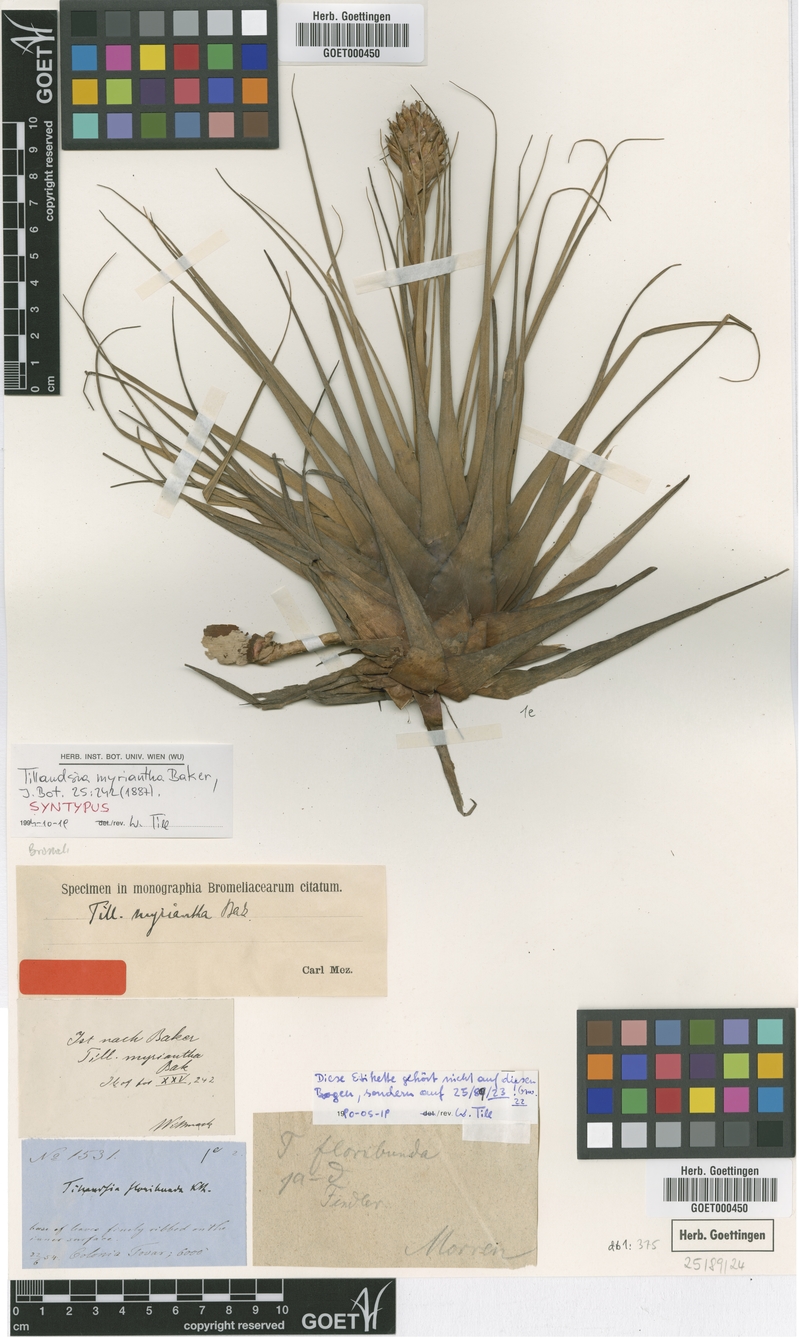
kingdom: Plantae
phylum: Tracheophyta
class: Liliopsida
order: Poales
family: Bromeliaceae
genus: Vriesea
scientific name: Vriesea myriantha
